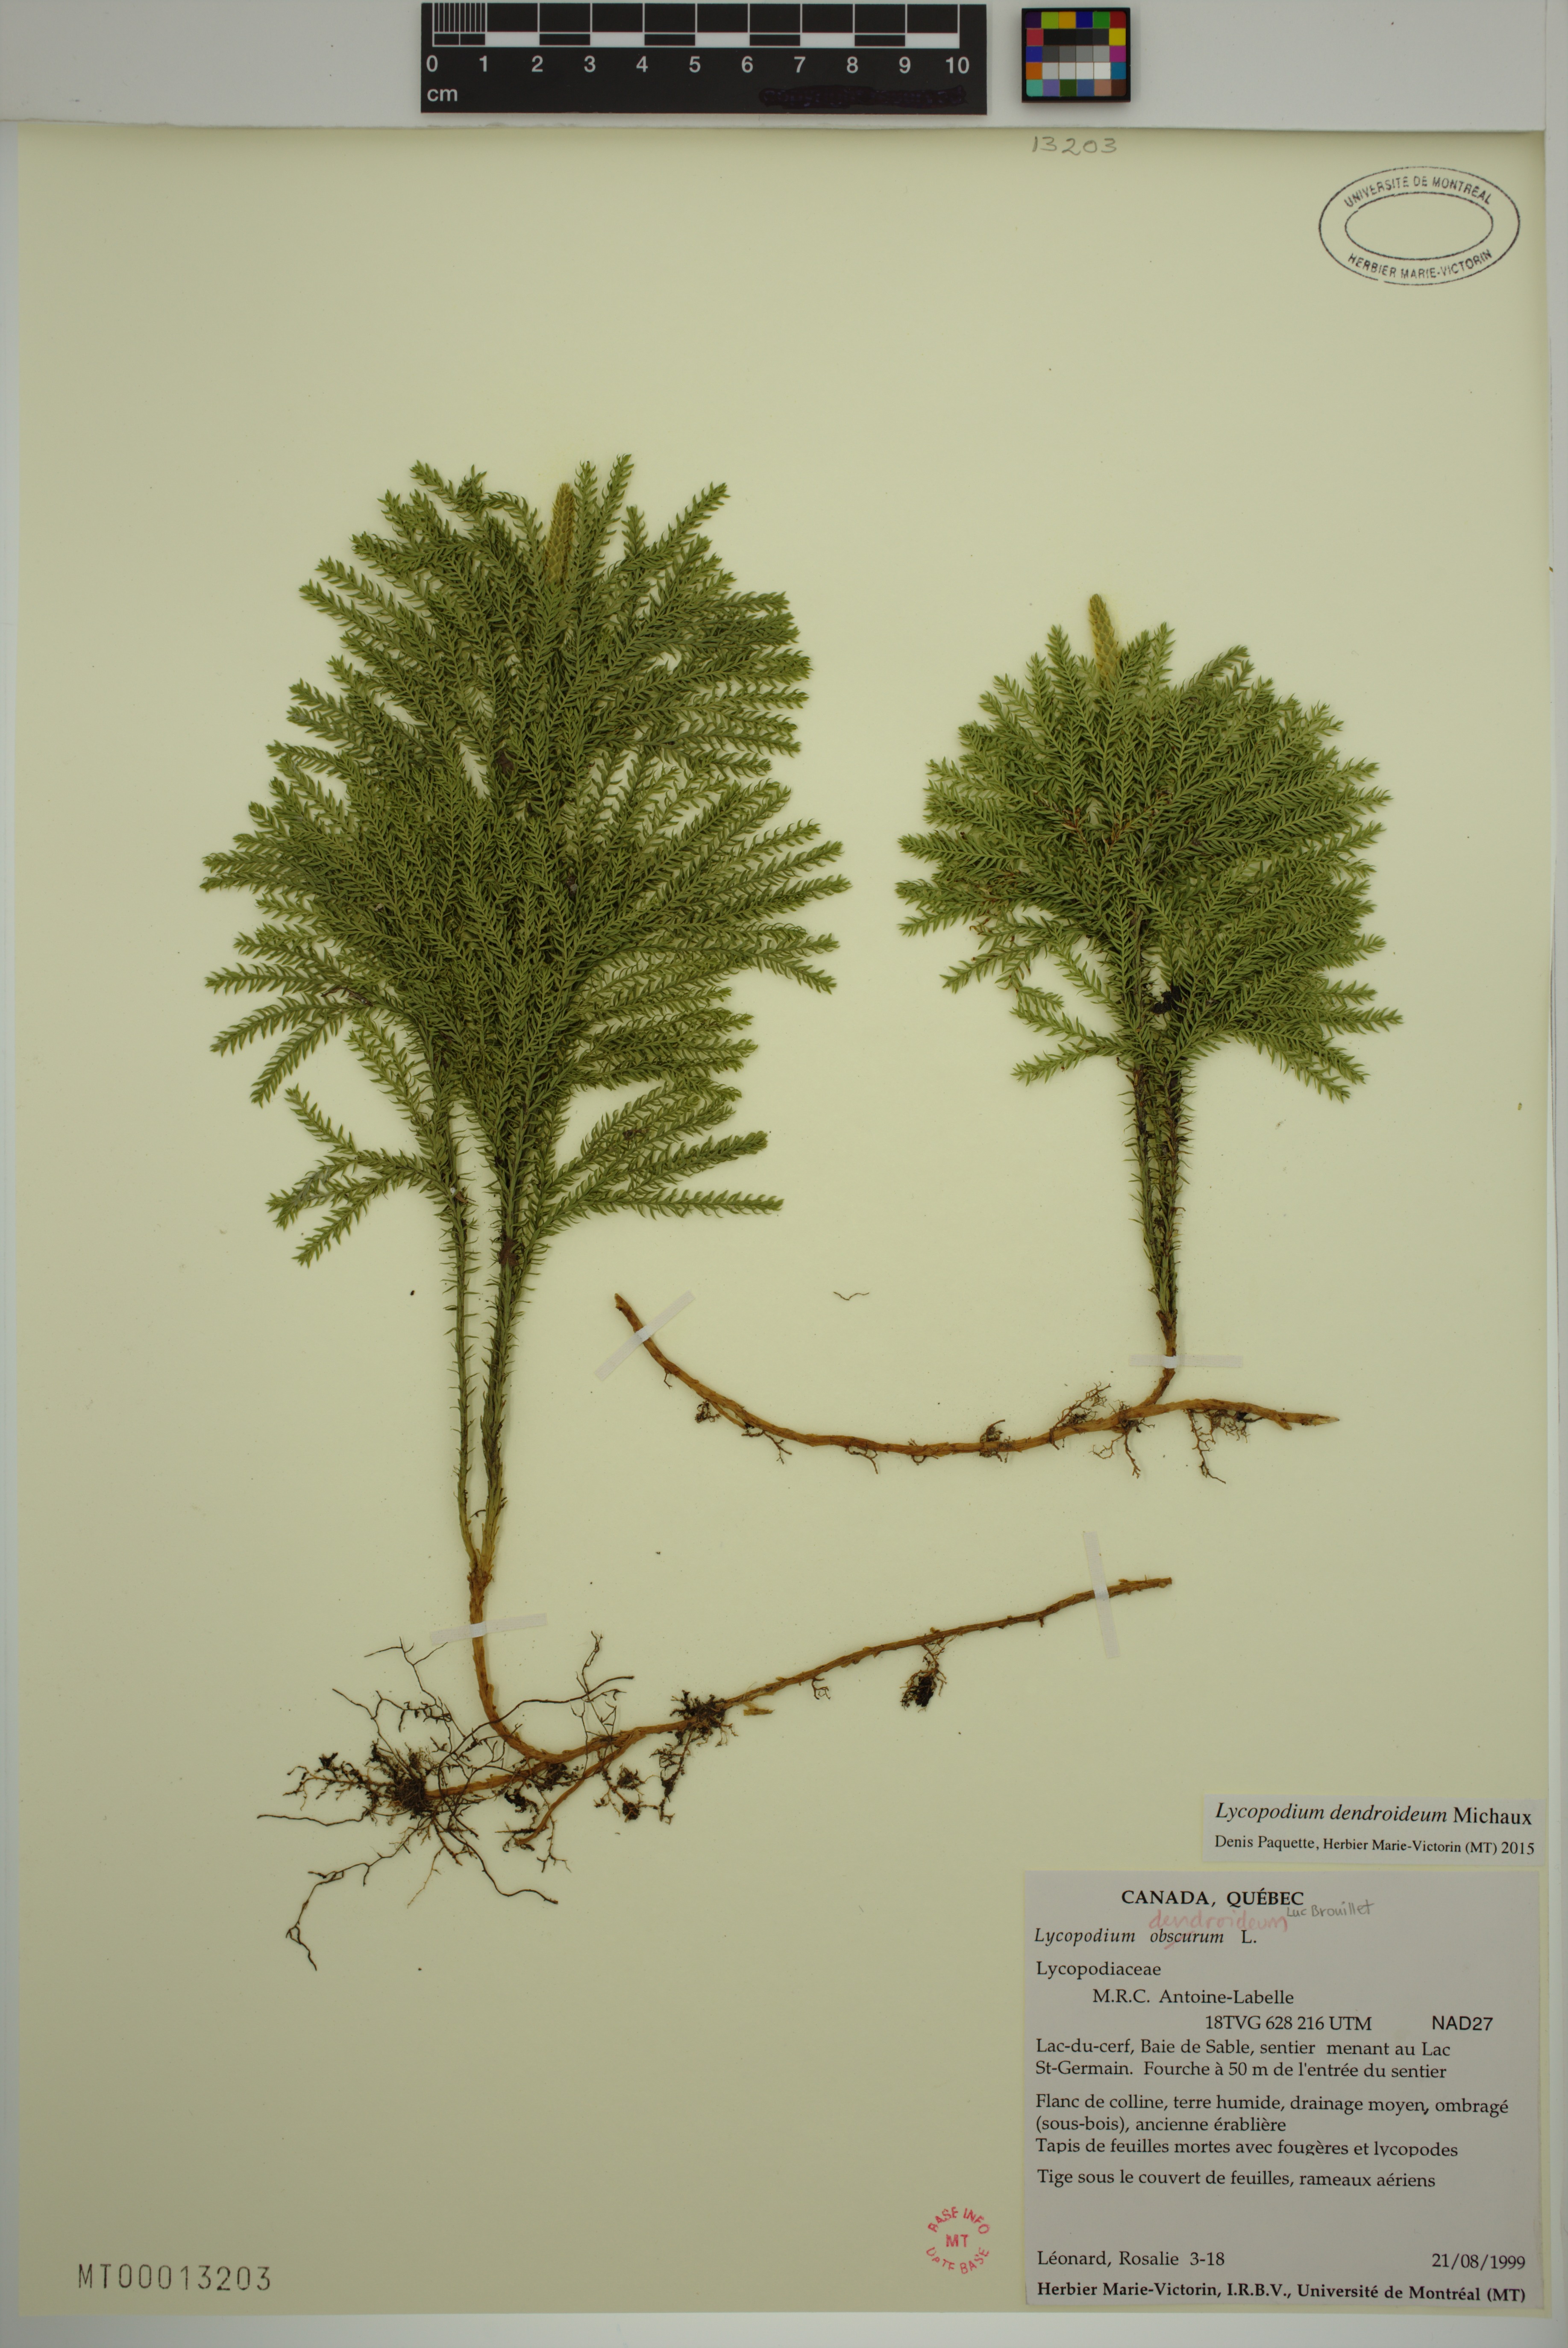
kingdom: Plantae
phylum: Tracheophyta
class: Lycopodiopsida
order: Lycopodiales
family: Lycopodiaceae
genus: Dendrolycopodium
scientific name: Dendrolycopodium dendroideum
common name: Northern tree-clubmoss
